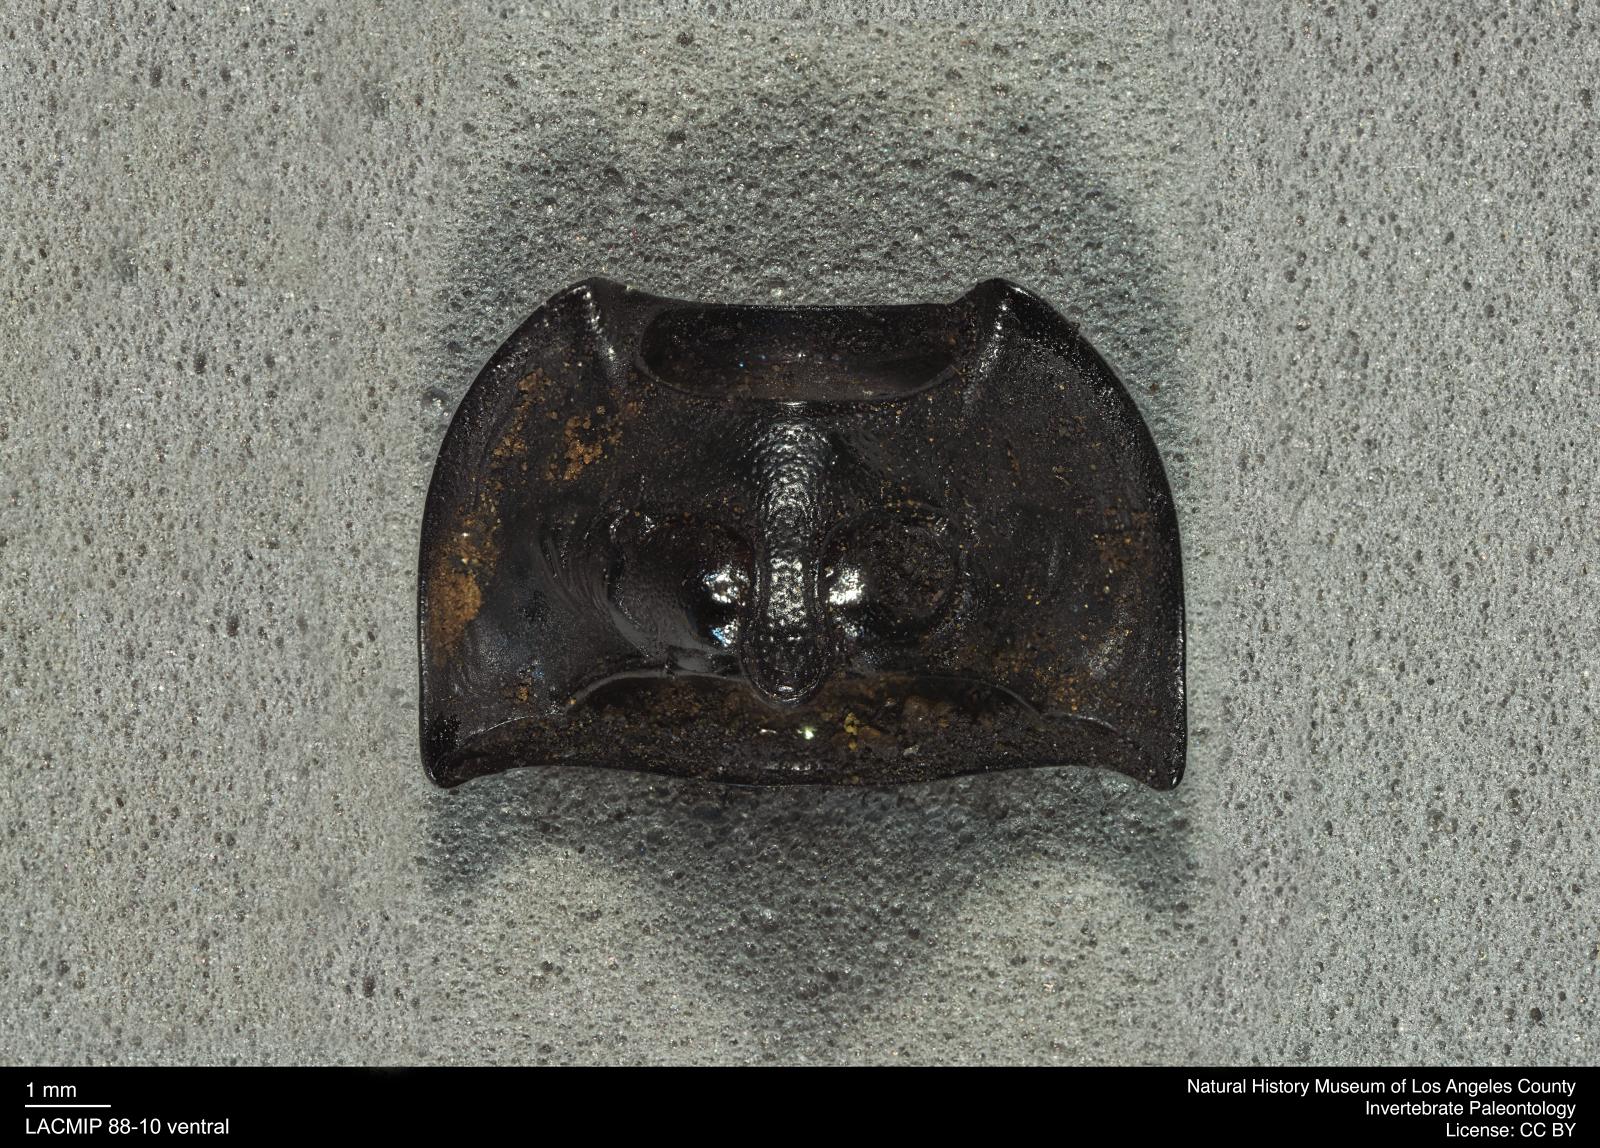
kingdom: Animalia
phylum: Arthropoda
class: Insecta
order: Coleoptera
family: Tenebrionidae
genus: Coniontis
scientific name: Coniontis abdominalis
